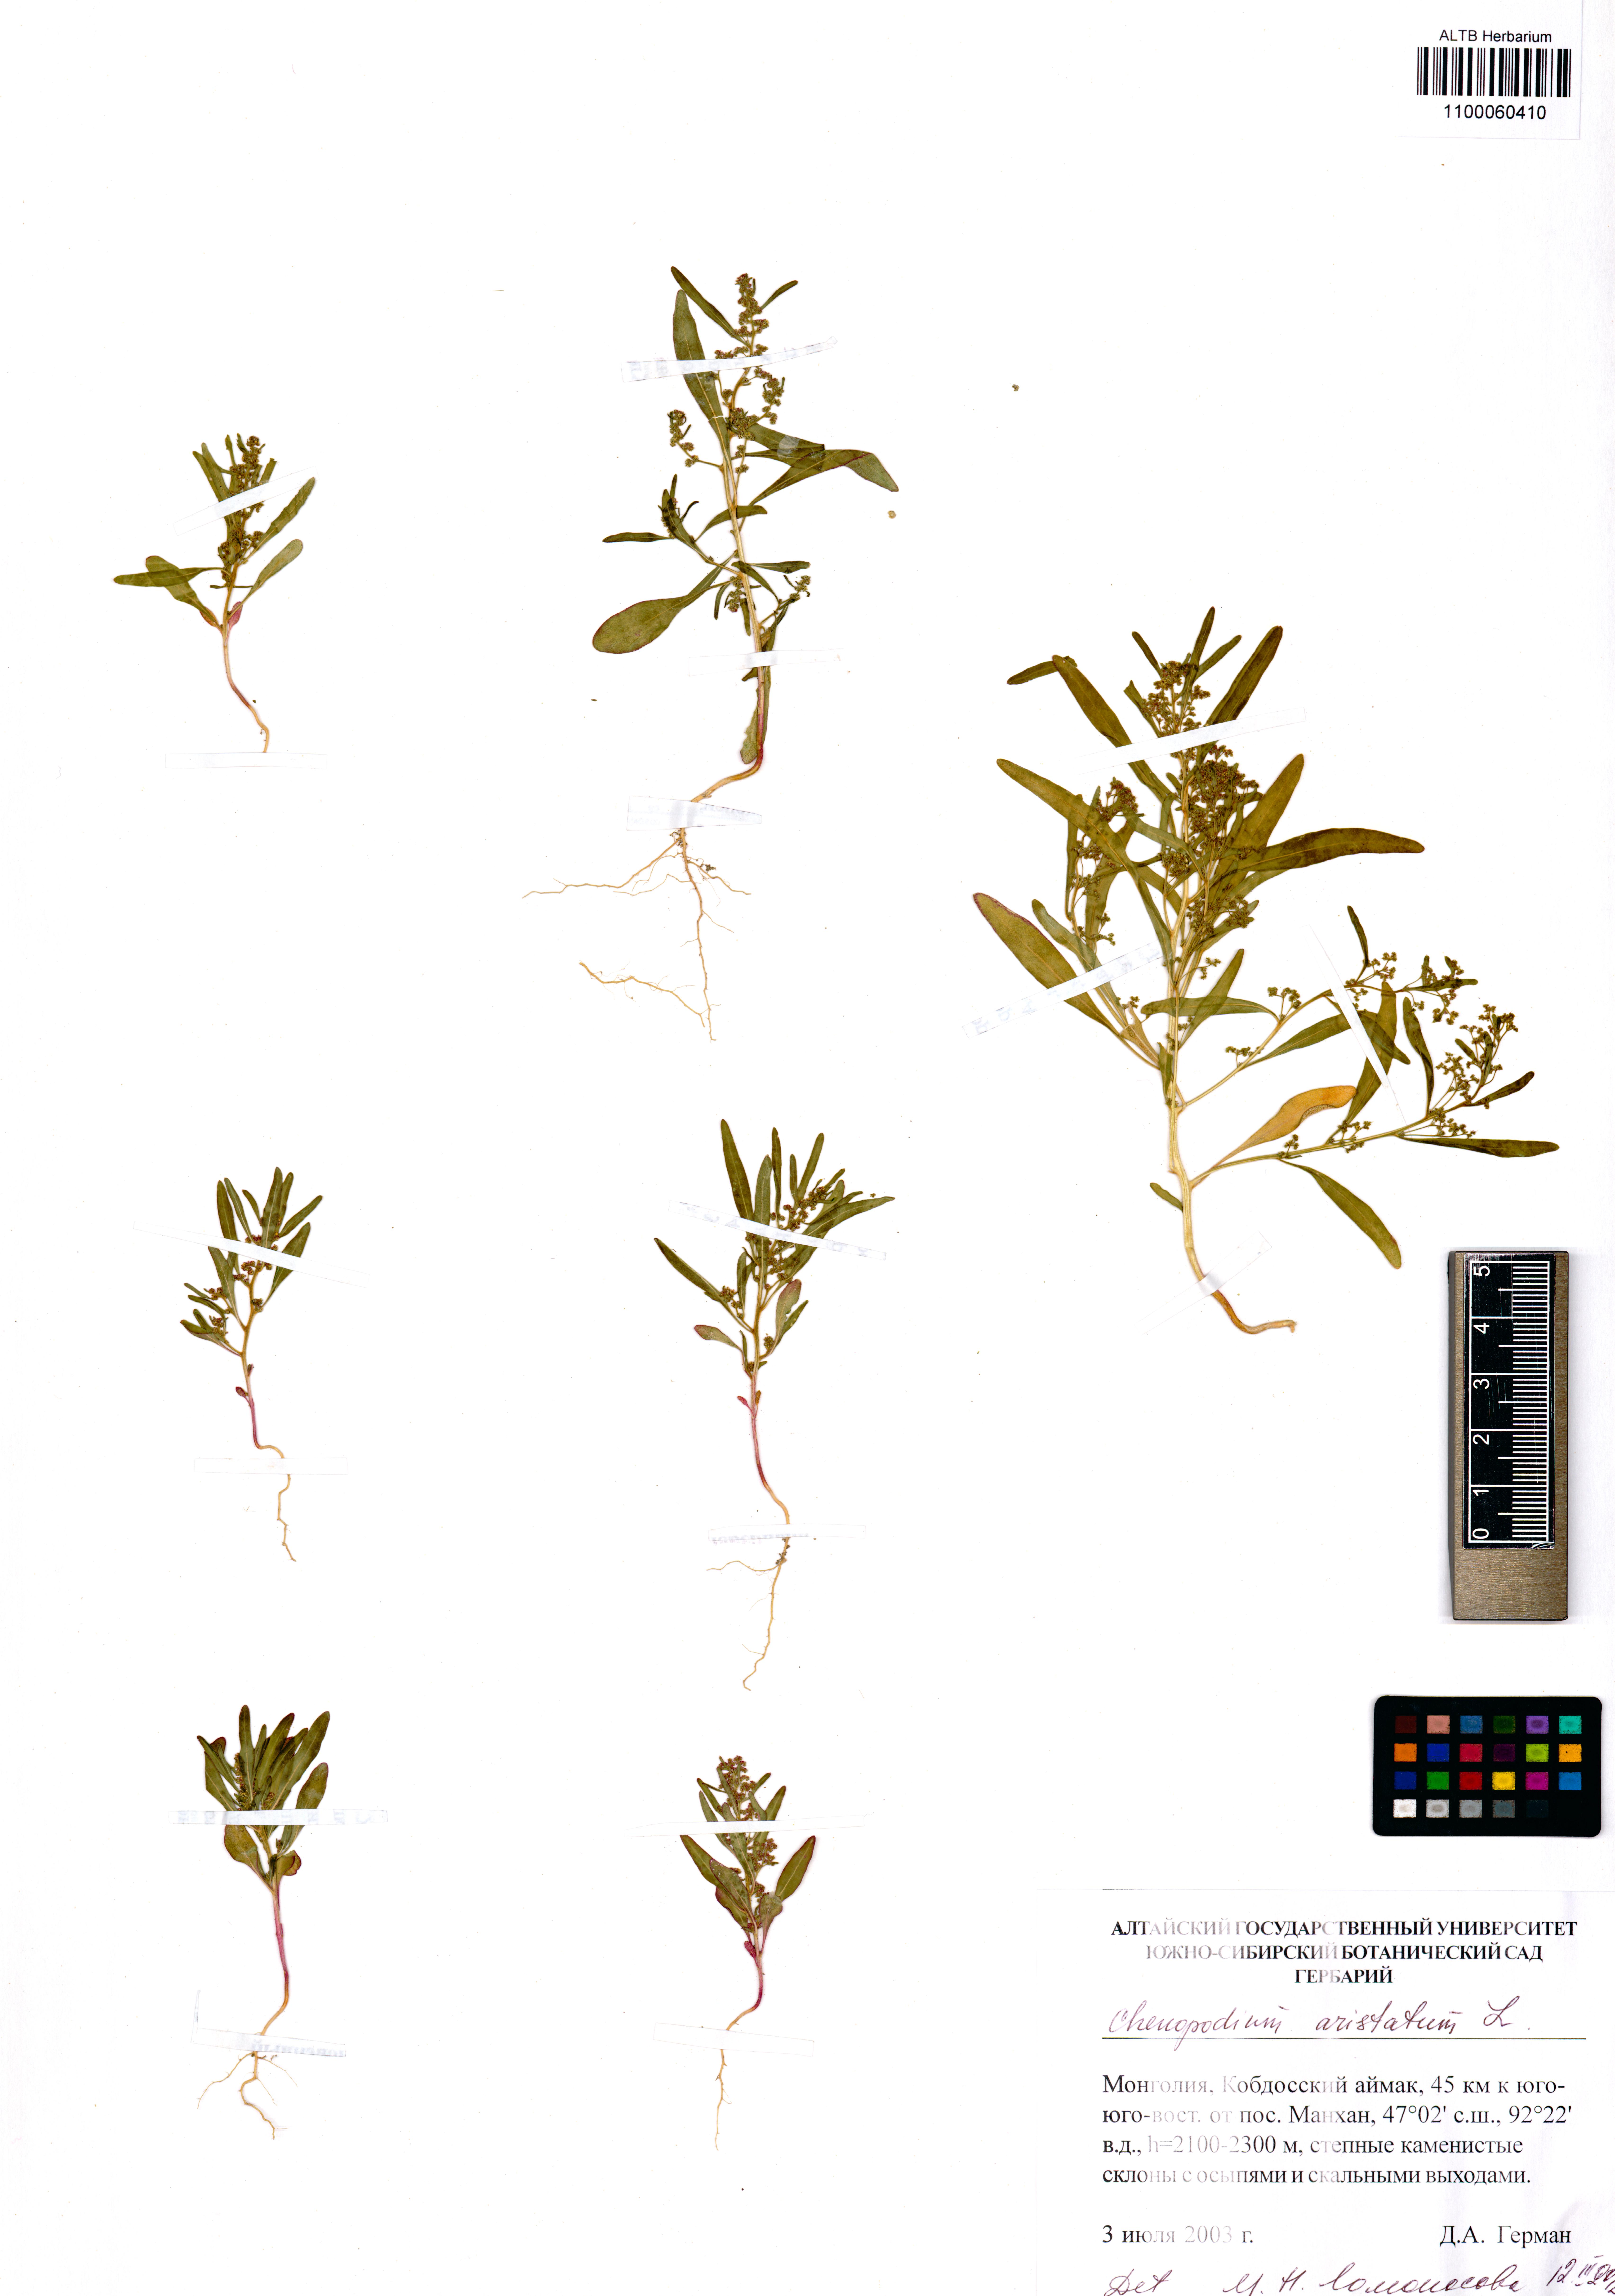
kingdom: Plantae
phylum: Tracheophyta
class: Magnoliopsida
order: Caryophyllales
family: Amaranthaceae
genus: Teloxys
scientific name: Teloxys aristata
